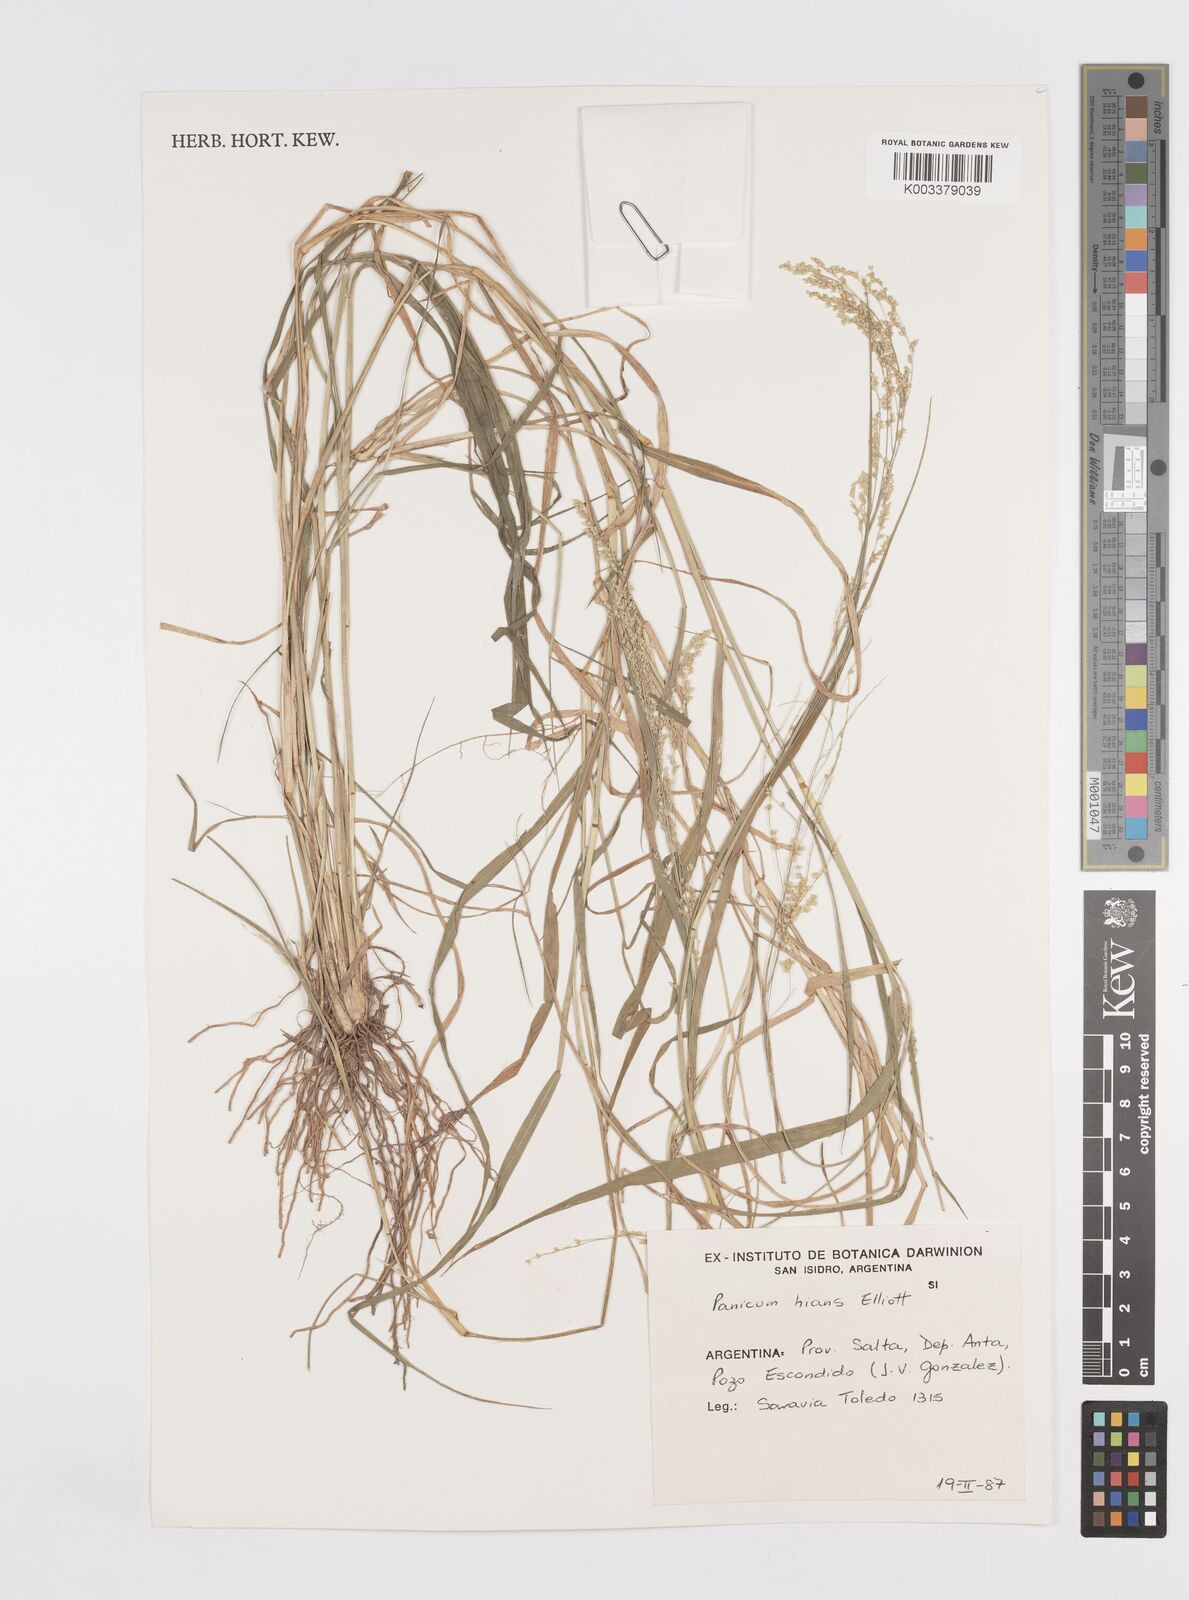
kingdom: Plantae
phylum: Tracheophyta
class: Liliopsida
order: Poales
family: Poaceae
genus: Steinchisma
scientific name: Steinchisma hians
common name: Gaping panic grass
